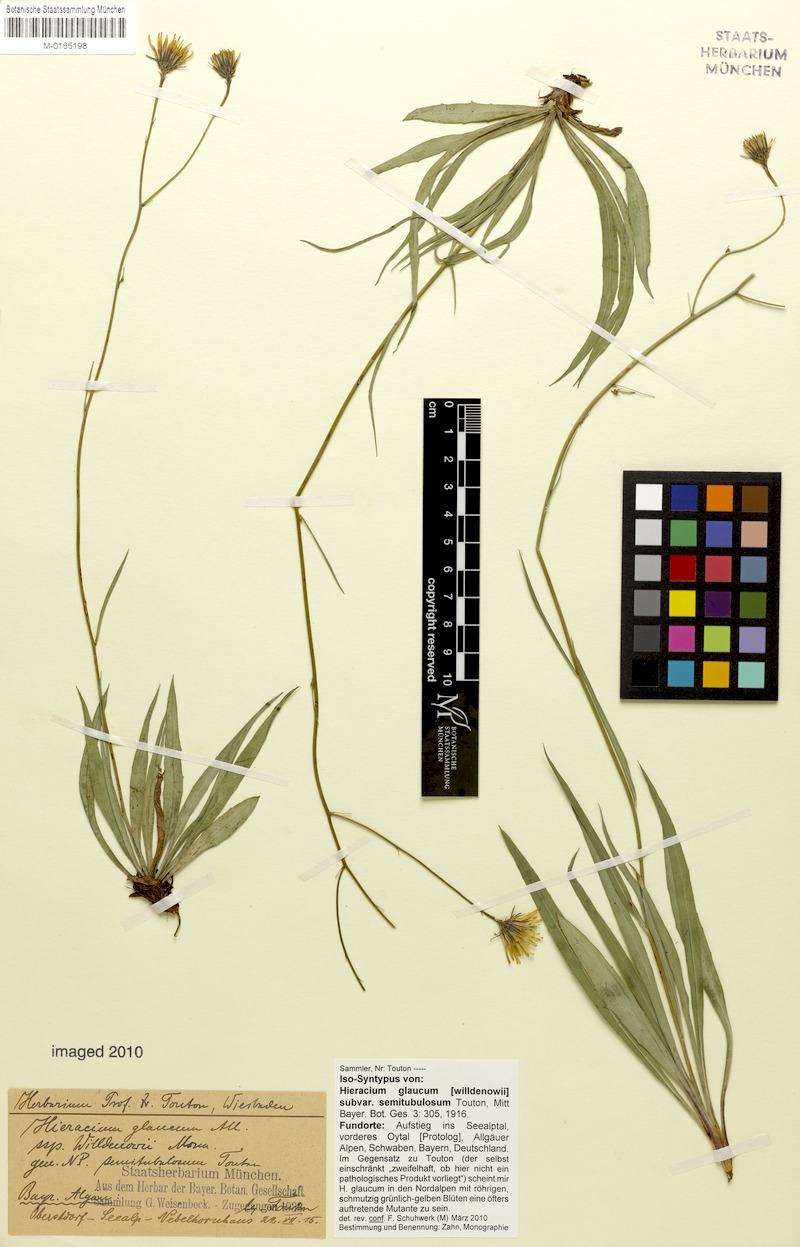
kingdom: Plantae
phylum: Tracheophyta
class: Magnoliopsida
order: Asterales
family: Asteraceae
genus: Hieracium
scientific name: Hieracium glaucum
